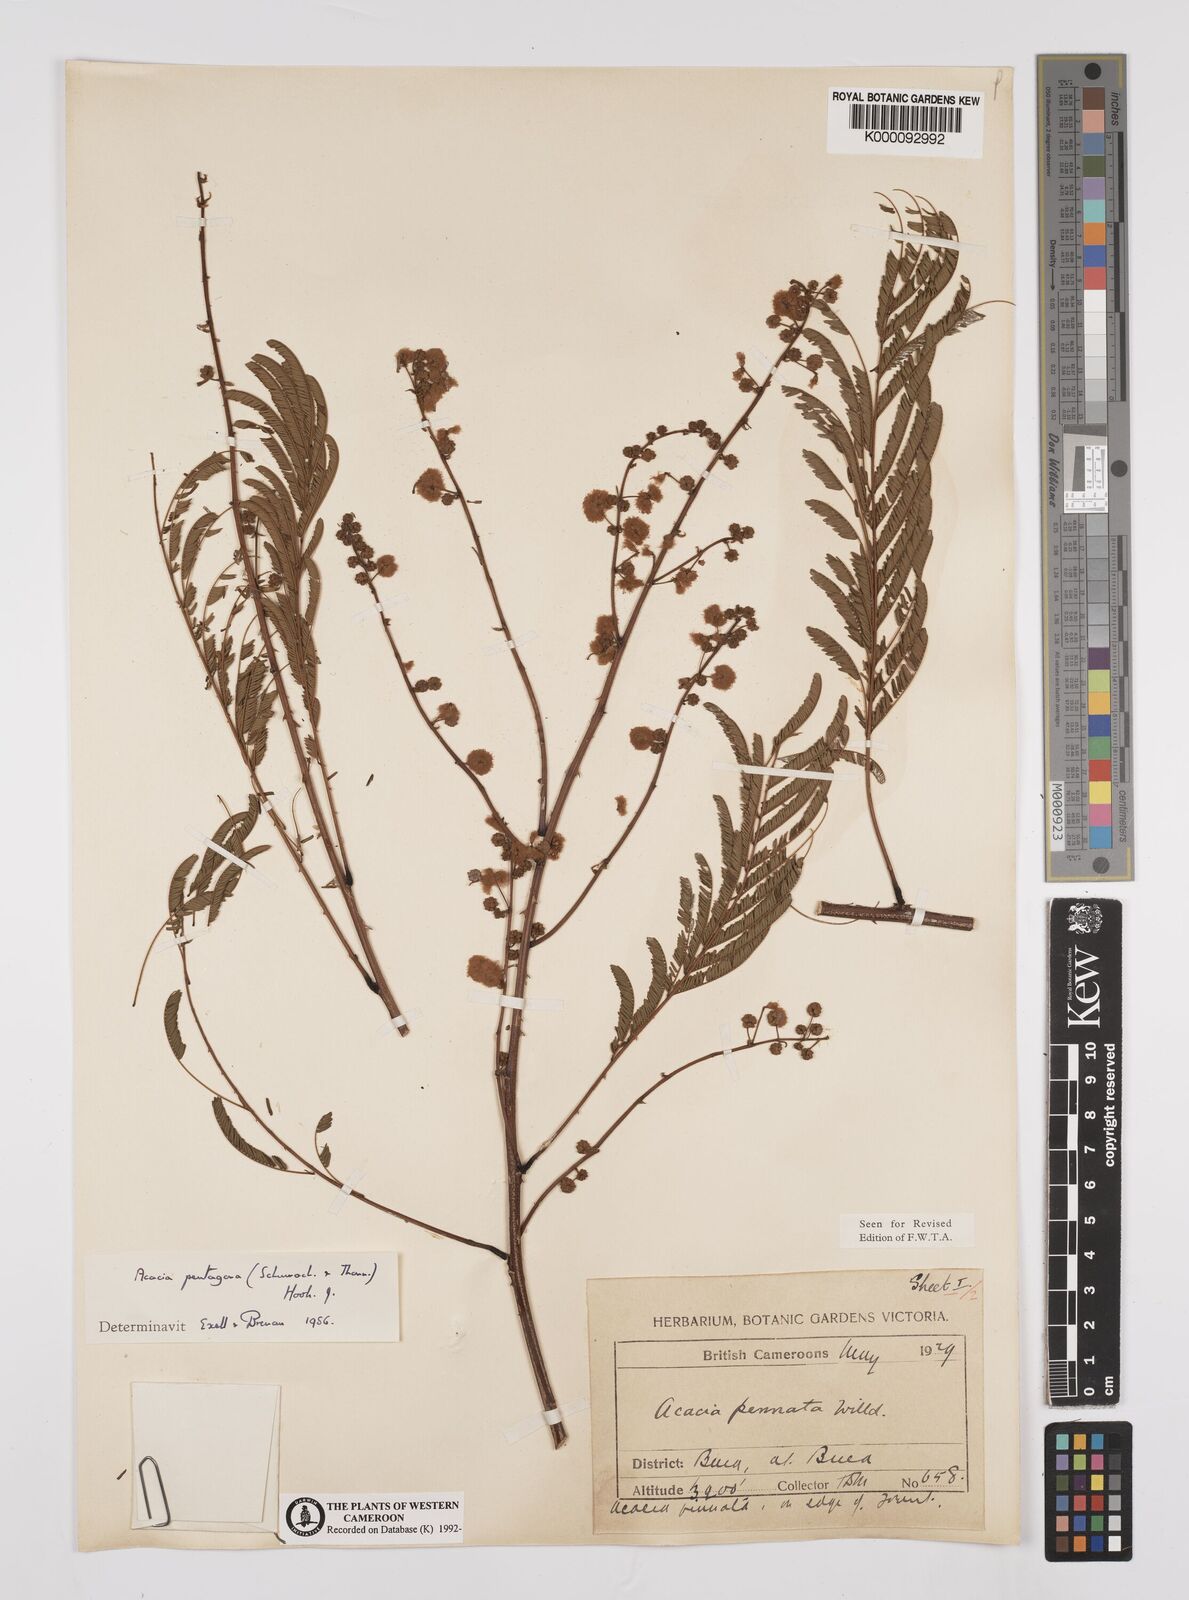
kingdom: Plantae
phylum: Tracheophyta
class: Magnoliopsida
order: Fabales
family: Fabaceae
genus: Senegalia
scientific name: Senegalia pentagona
